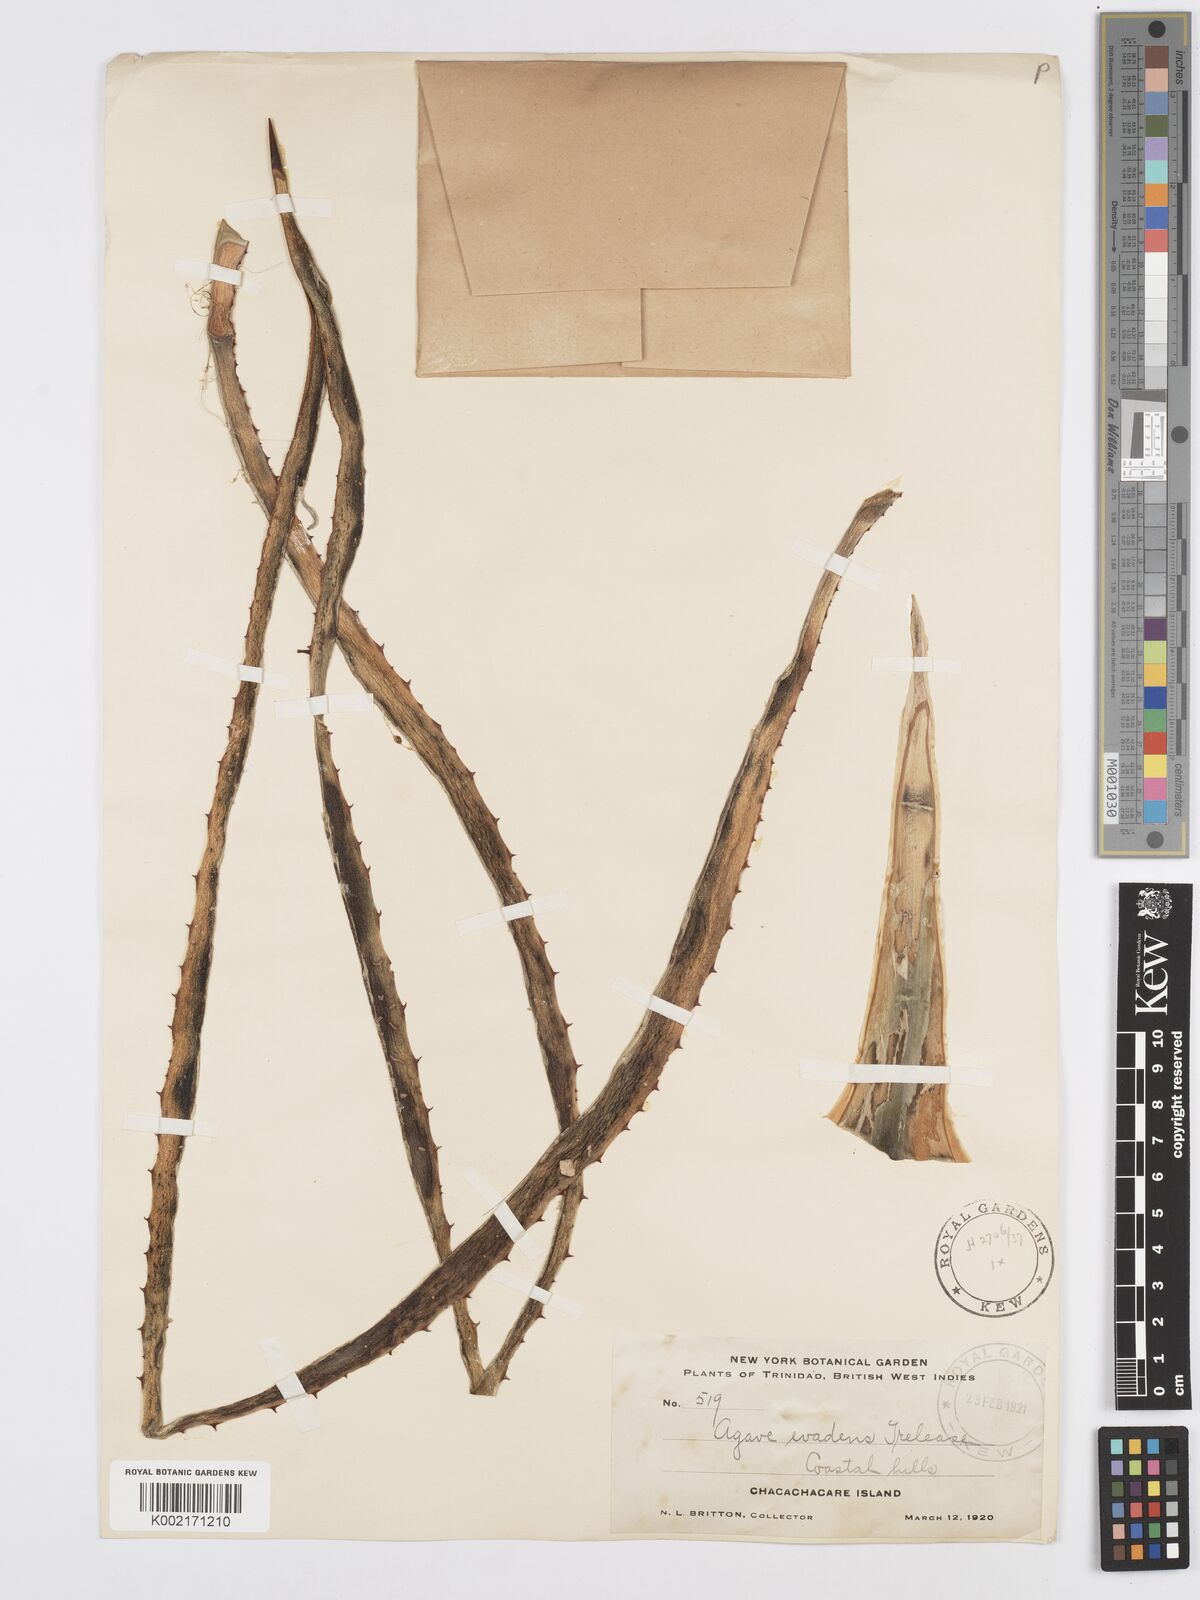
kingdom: Plantae
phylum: Tracheophyta
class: Liliopsida
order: Asparagales
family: Asparagaceae
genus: Agave
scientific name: Agave evadens
